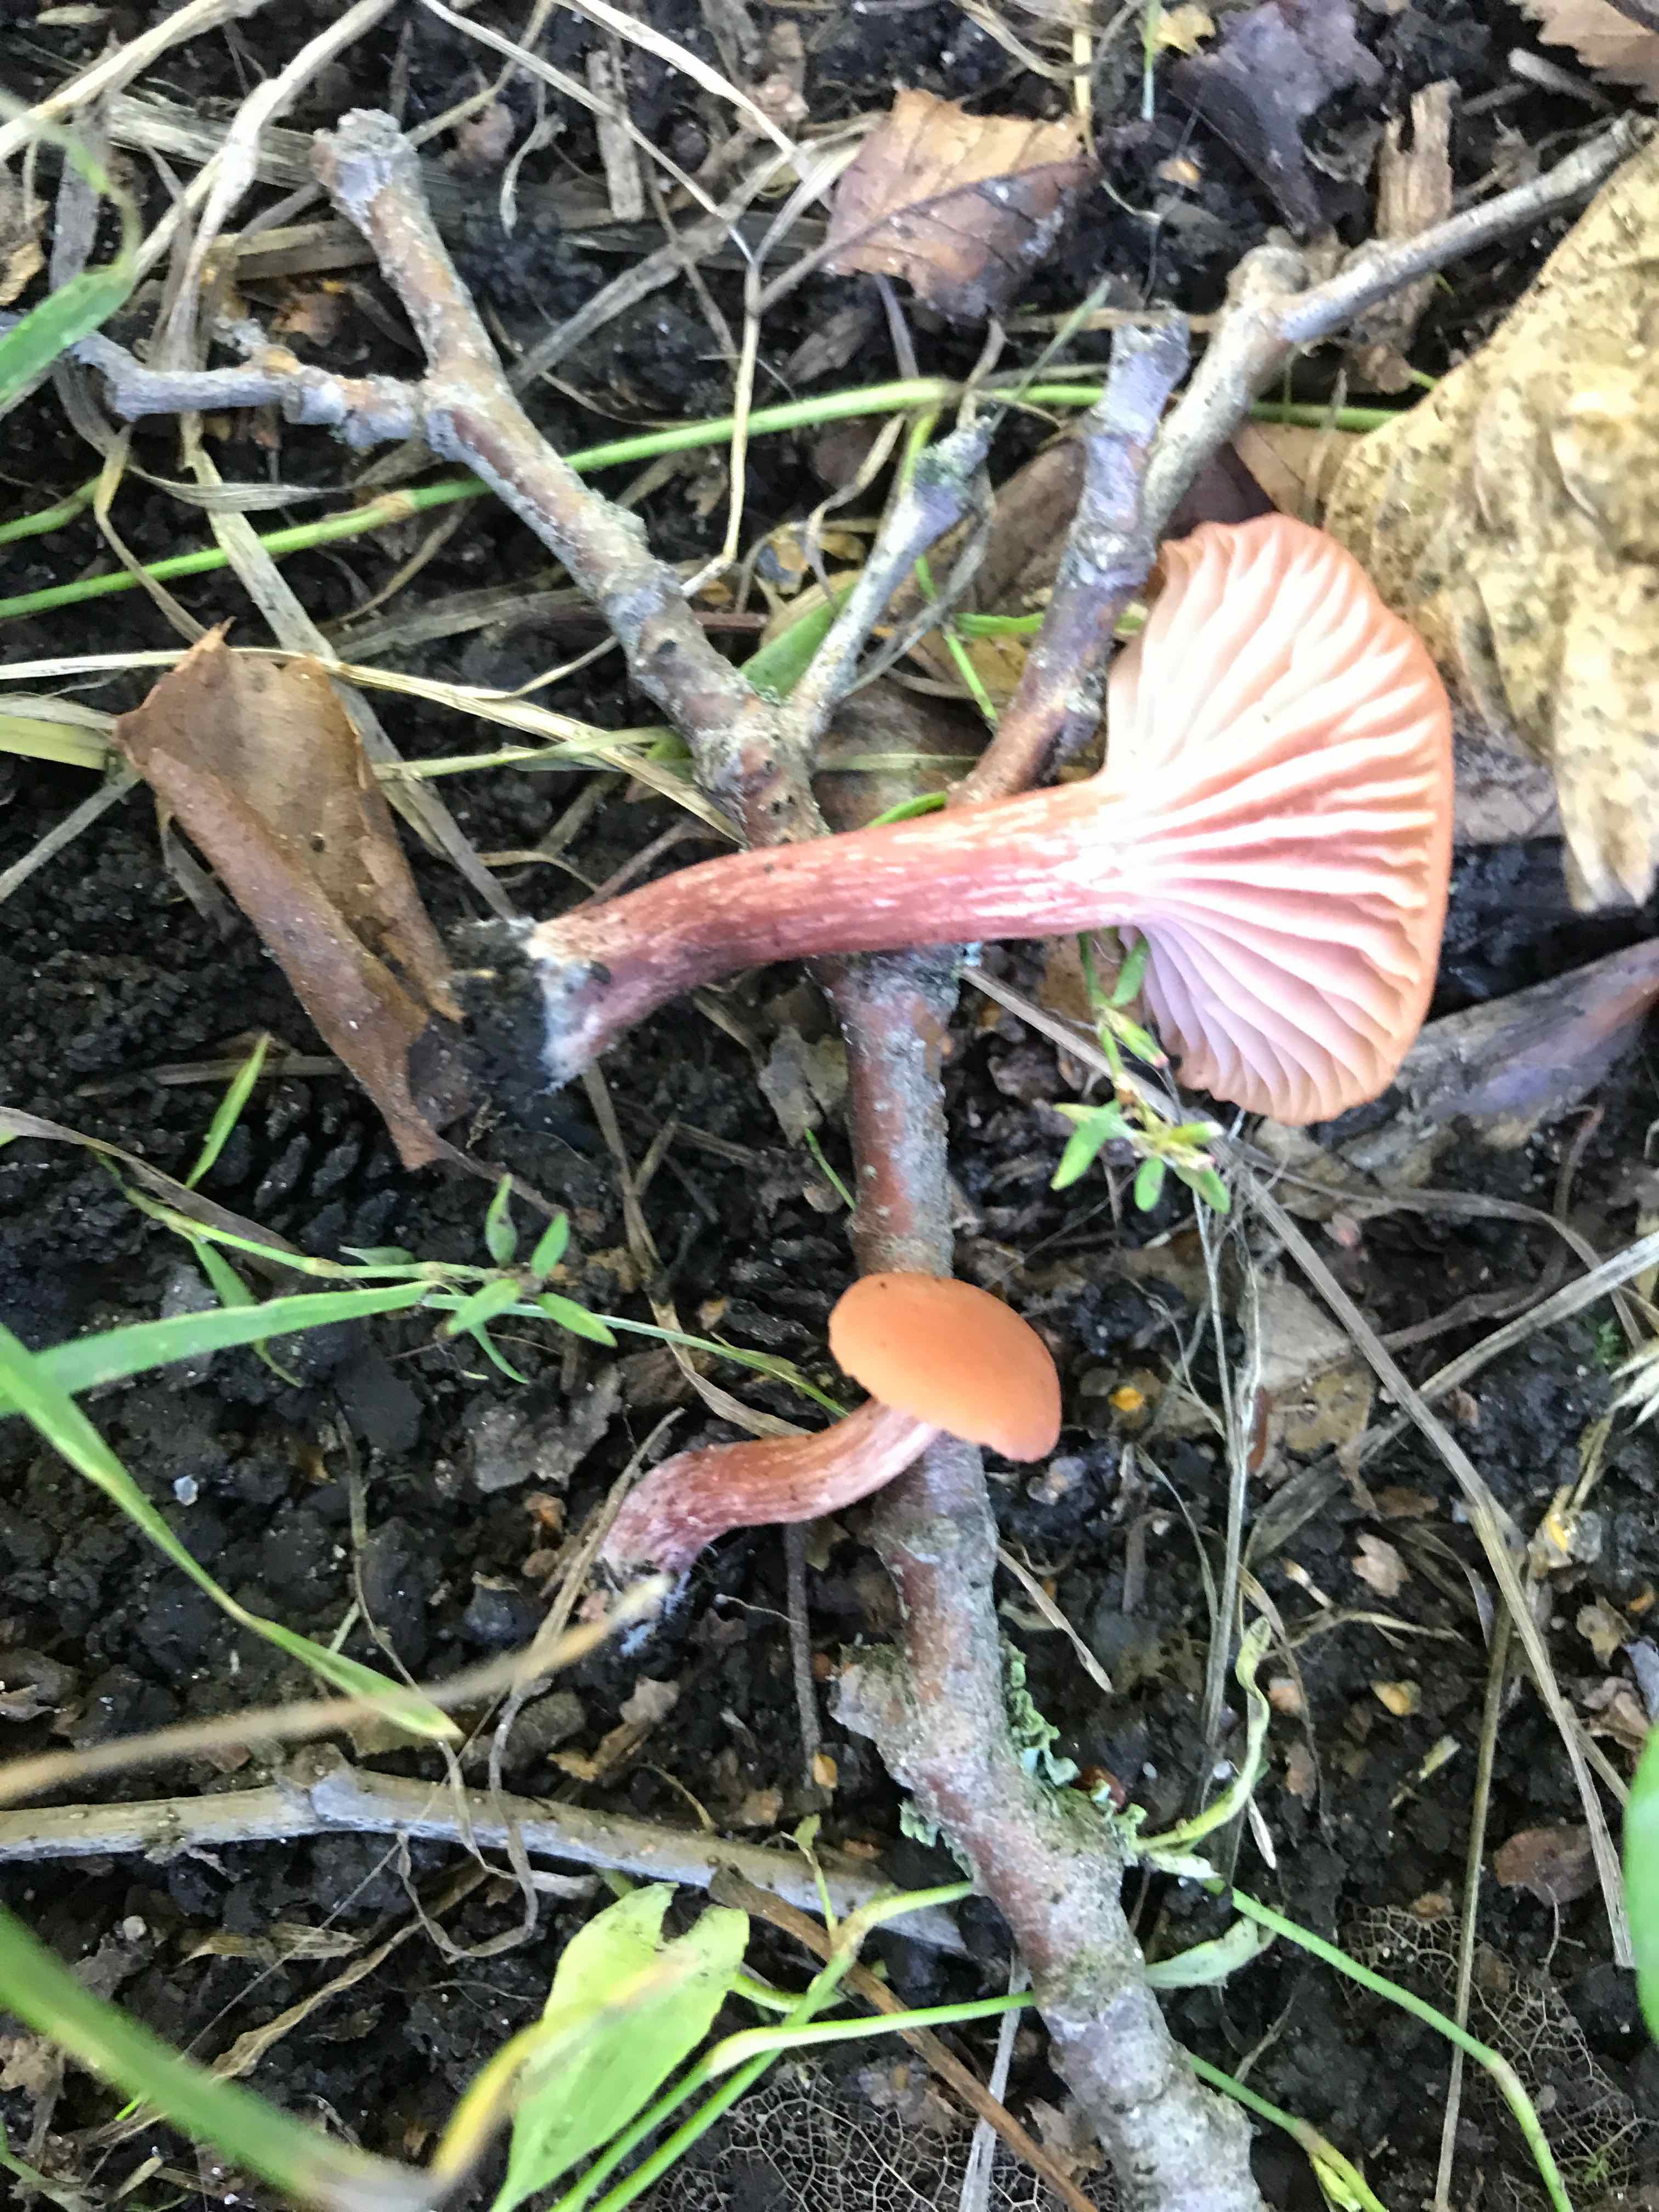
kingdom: Fungi
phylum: Basidiomycota
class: Agaricomycetes
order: Agaricales
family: Hydnangiaceae
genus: Laccaria
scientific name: Laccaria laccata
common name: rød ametysthat
